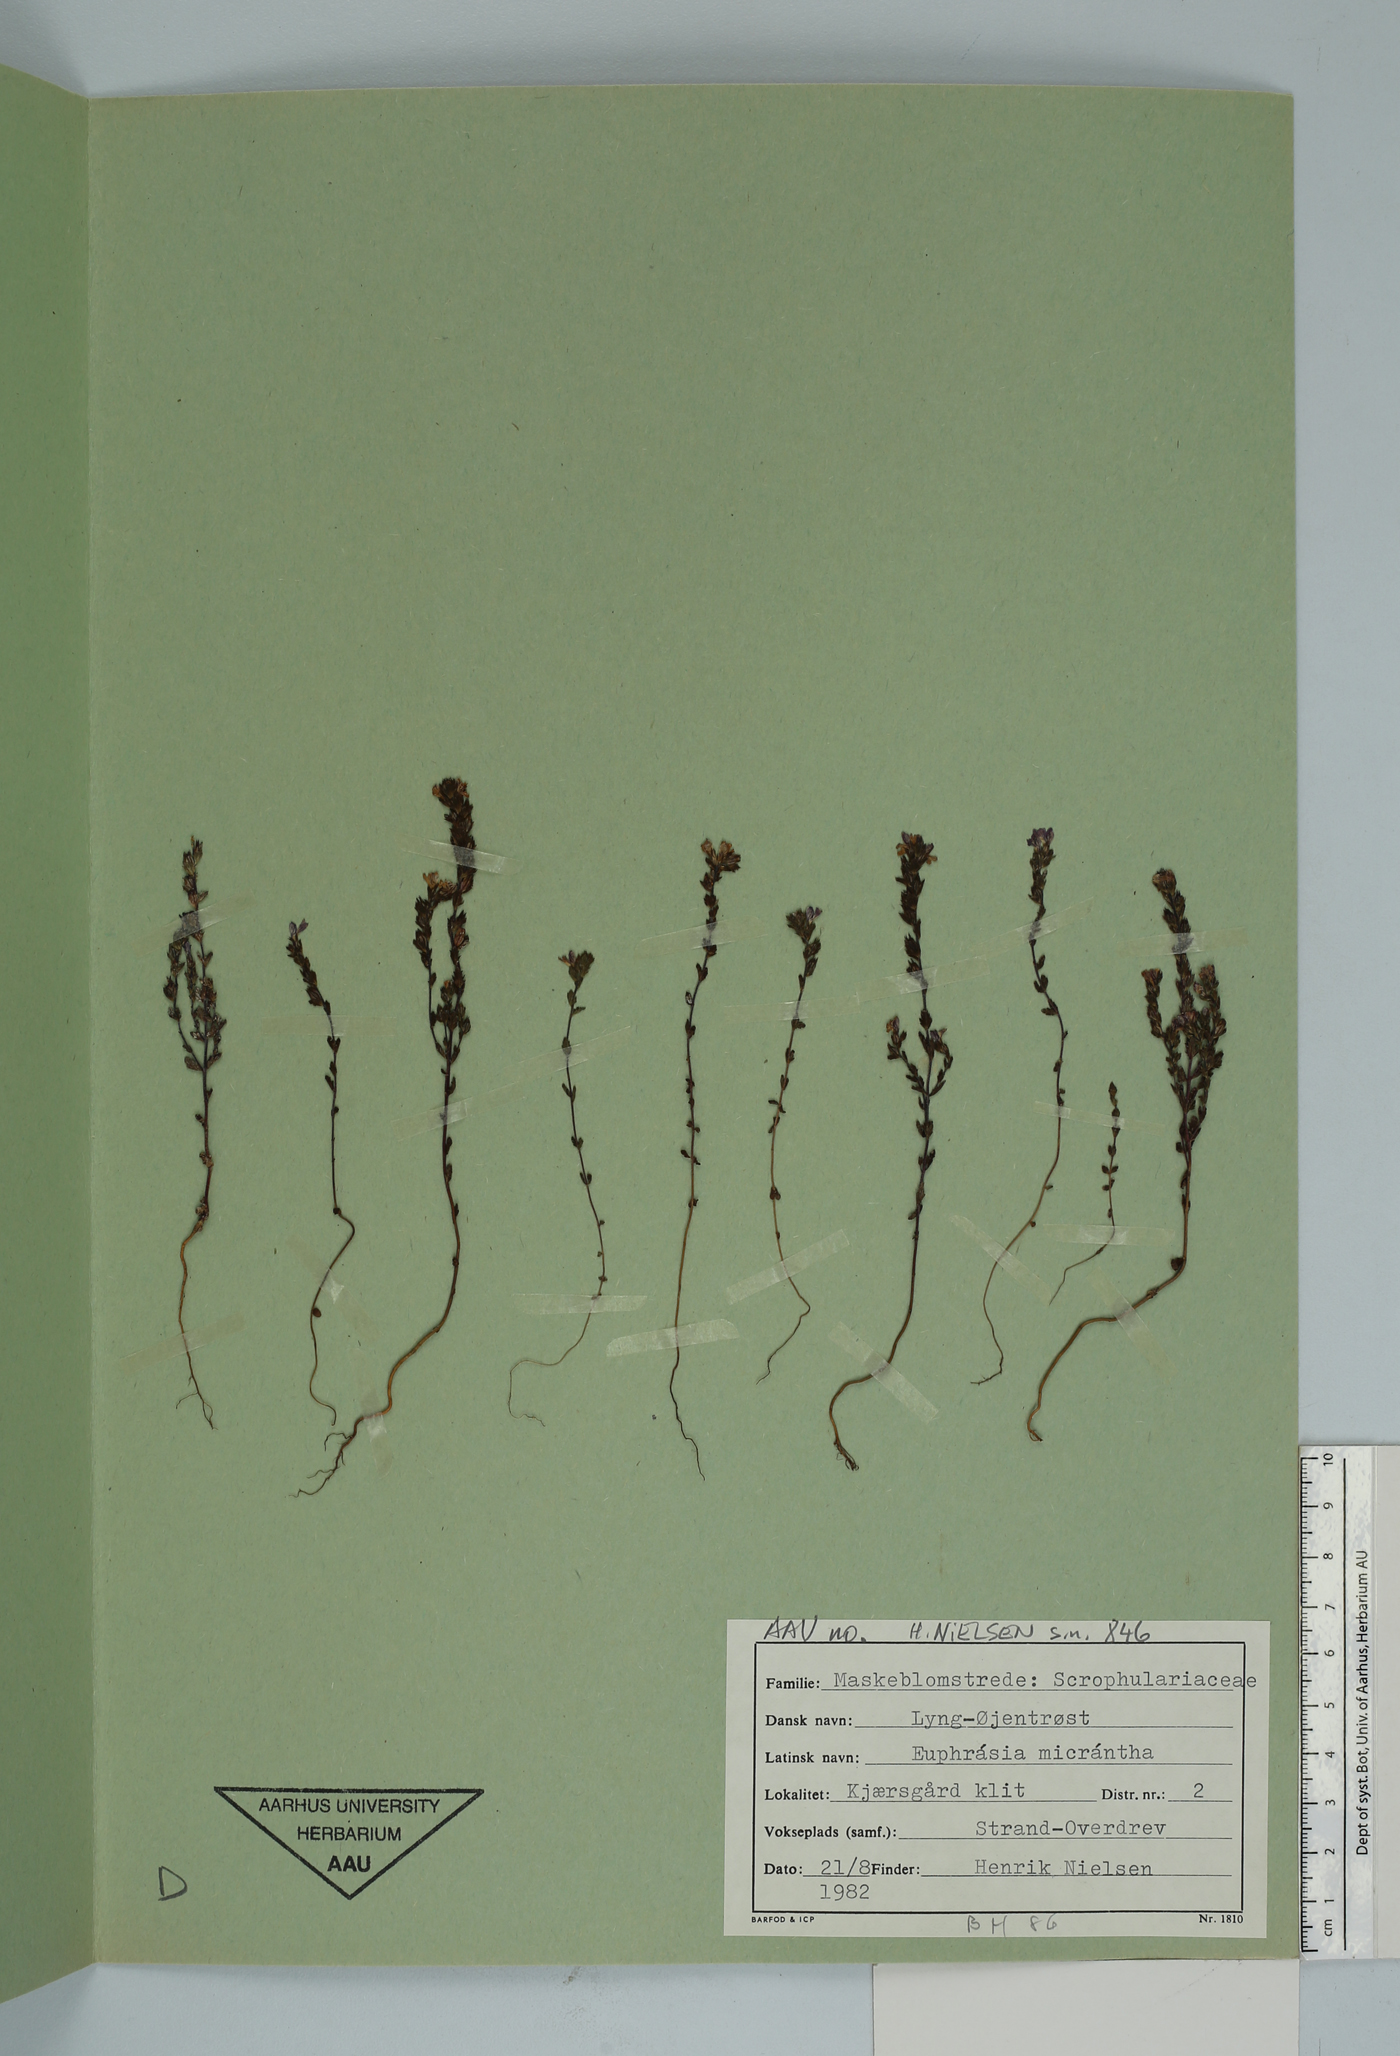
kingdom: Plantae
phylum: Tracheophyta
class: Magnoliopsida
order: Lamiales
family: Orobanchaceae
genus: Euphrasia
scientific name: Euphrasia micrantha
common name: Northern eyebright
